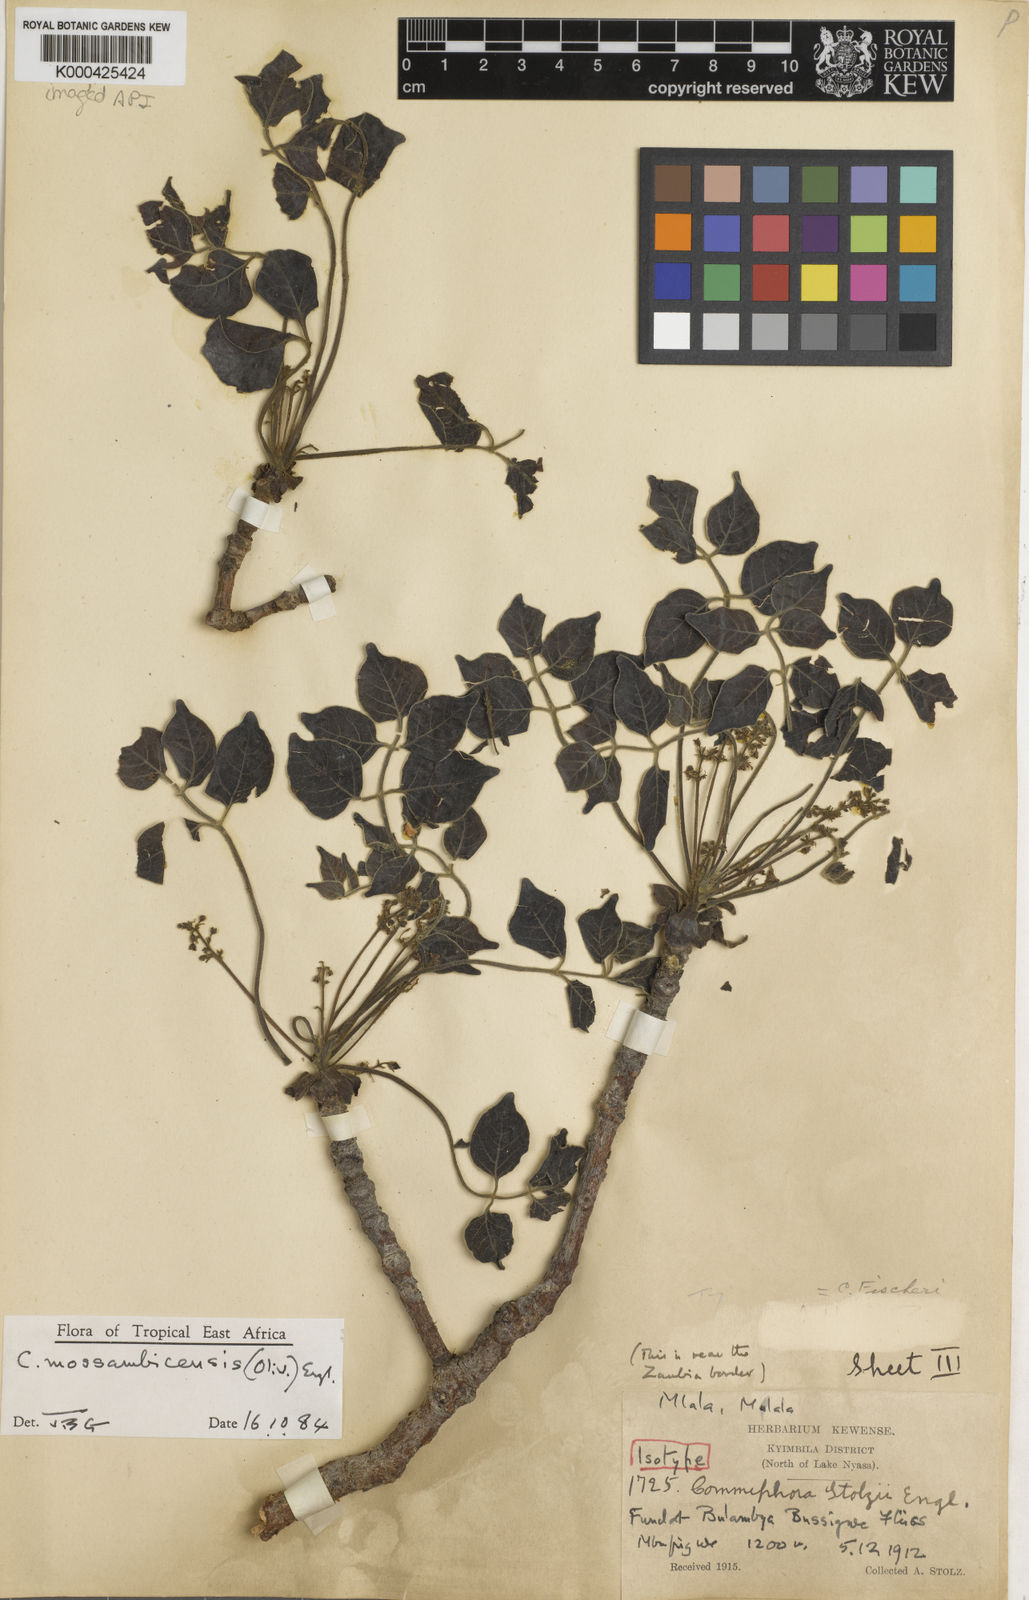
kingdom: Plantae
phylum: Tracheophyta
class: Magnoliopsida
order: Sapindales
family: Burseraceae
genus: Commiphora
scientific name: Commiphora mossambicensis
